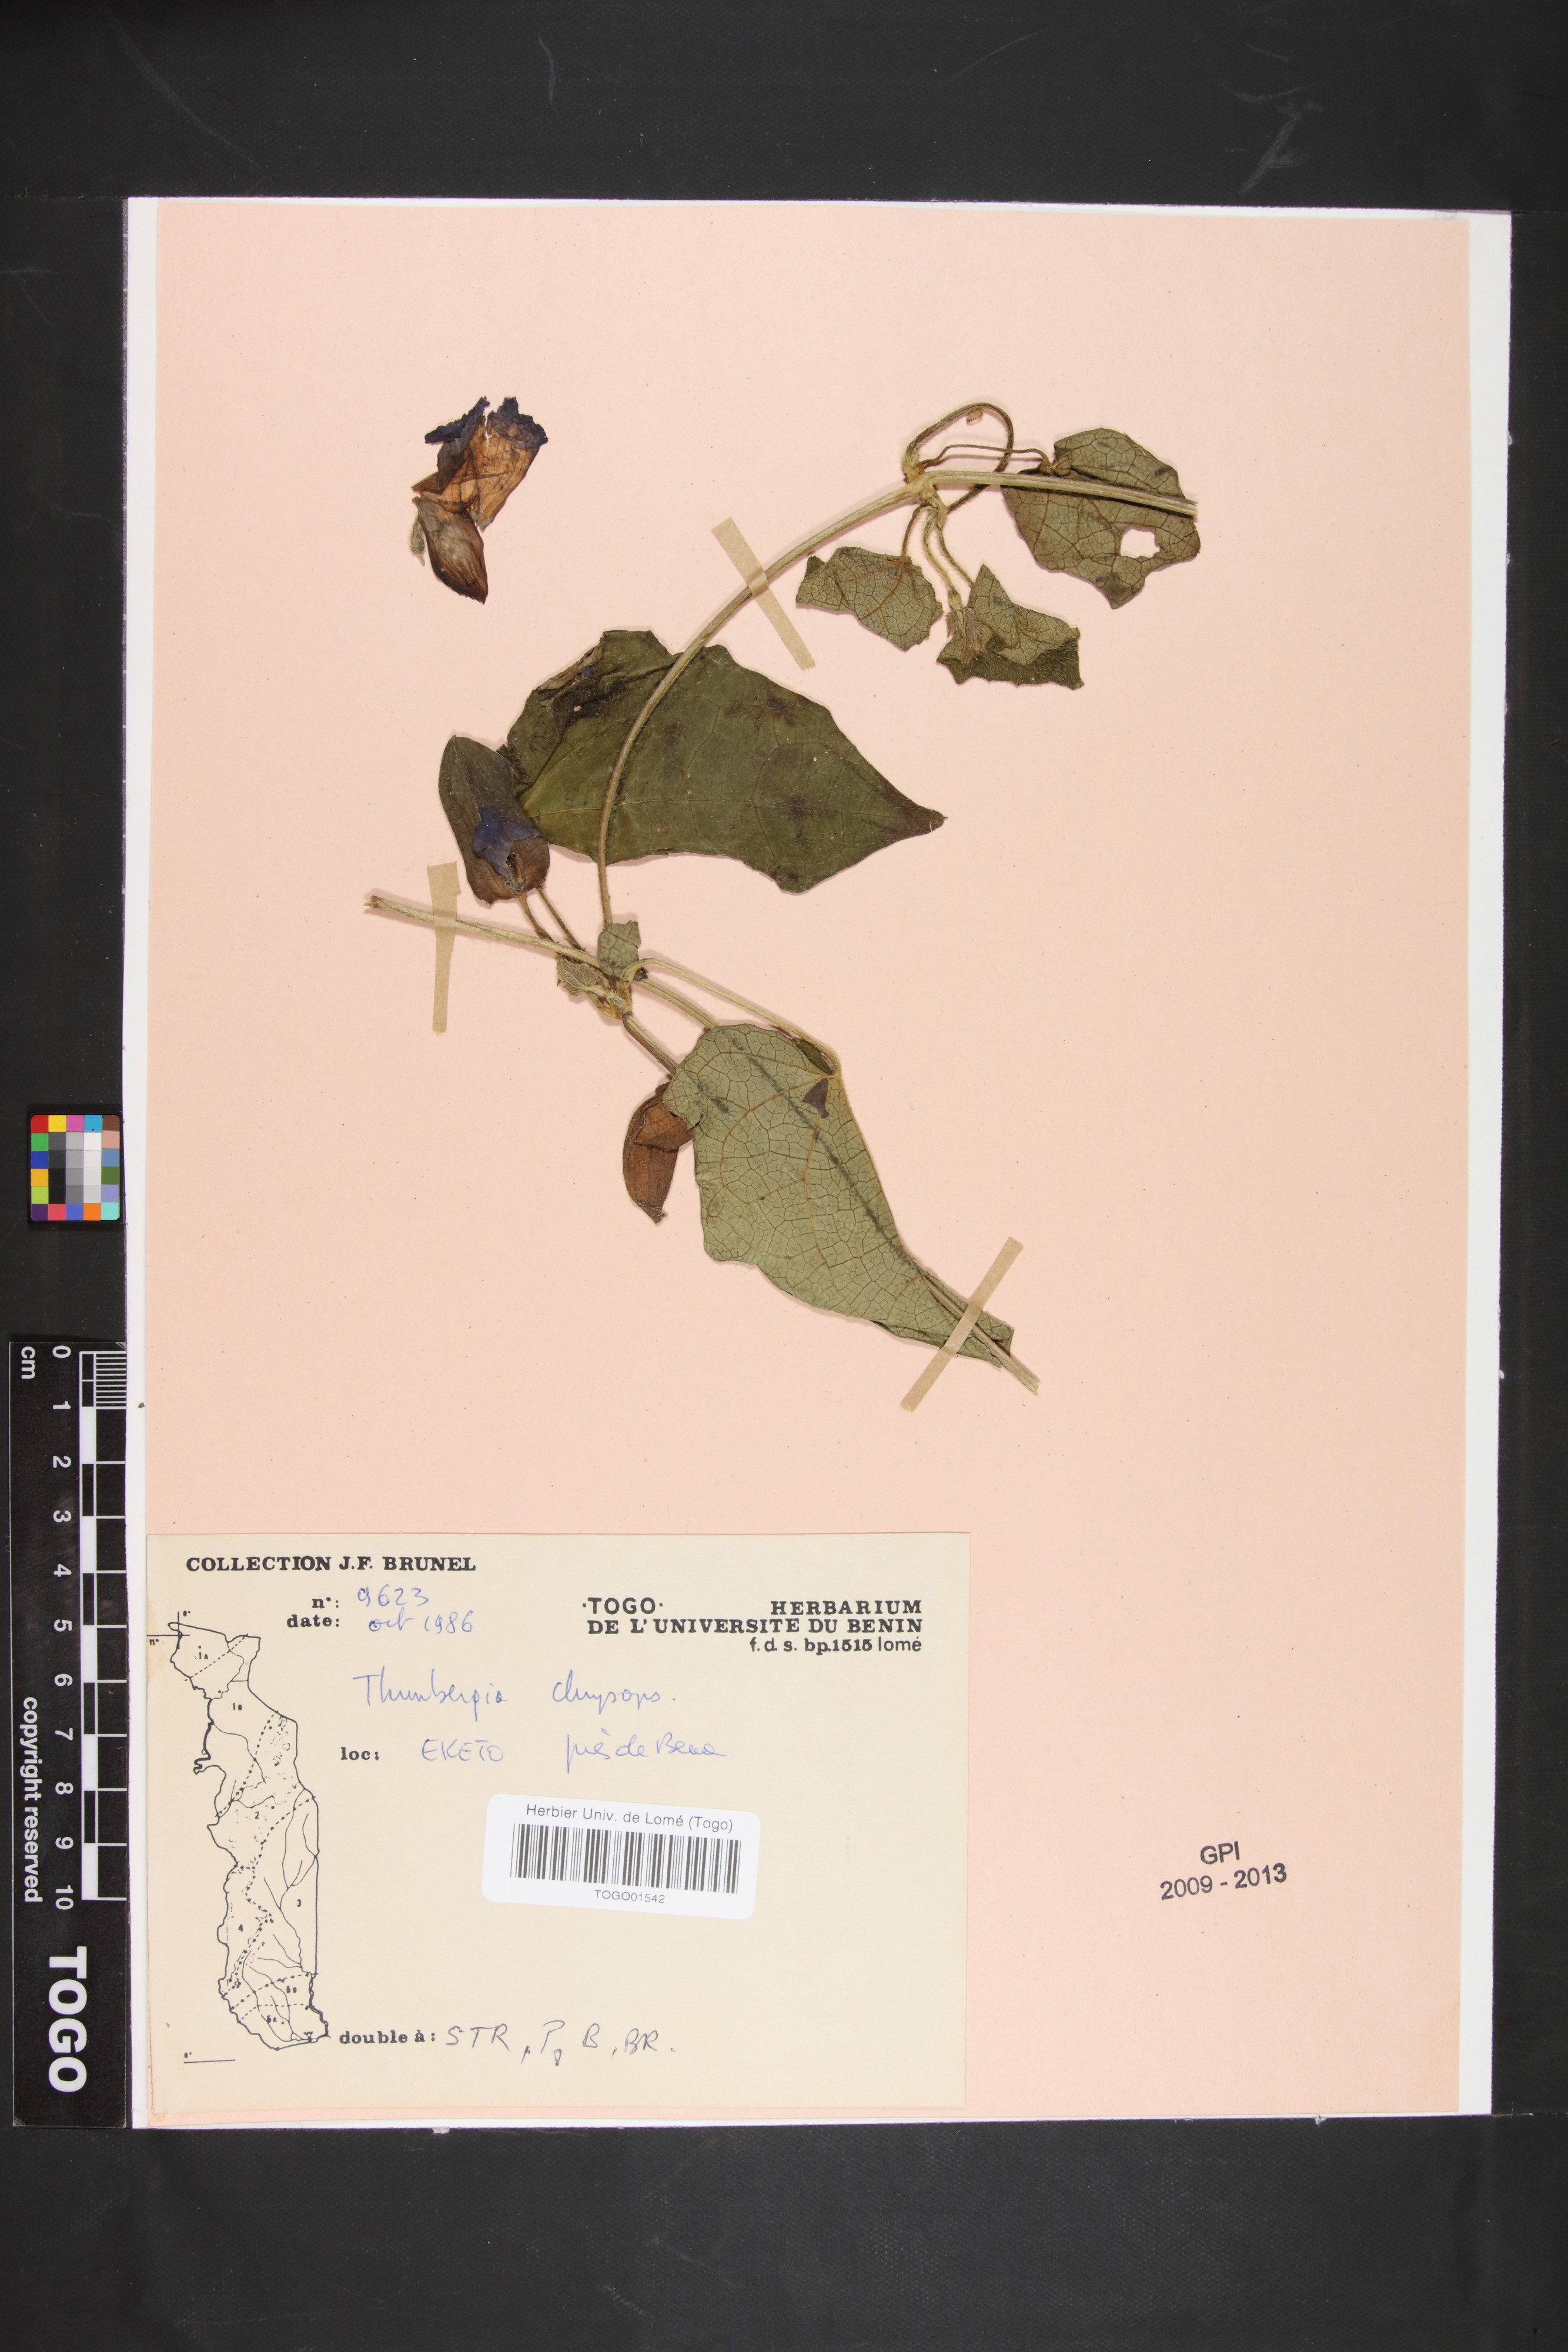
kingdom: Plantae
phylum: Tracheophyta
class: Magnoliopsida
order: Lamiales
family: Acanthaceae
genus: Thunbergia
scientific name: Thunbergia chrysops
